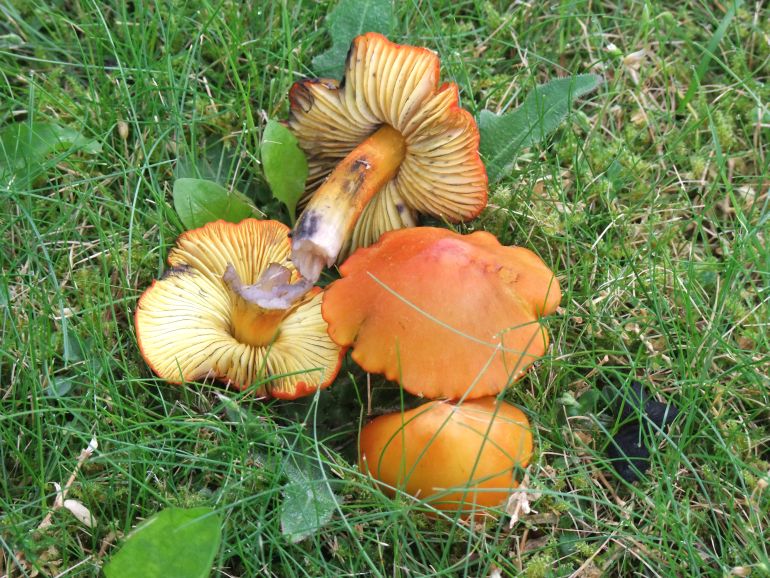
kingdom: Fungi
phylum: Basidiomycota
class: Agaricomycetes
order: Agaricales
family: Hygrophoraceae
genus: Hygrocybe
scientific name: Hygrocybe conica
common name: kegle-vokshat
